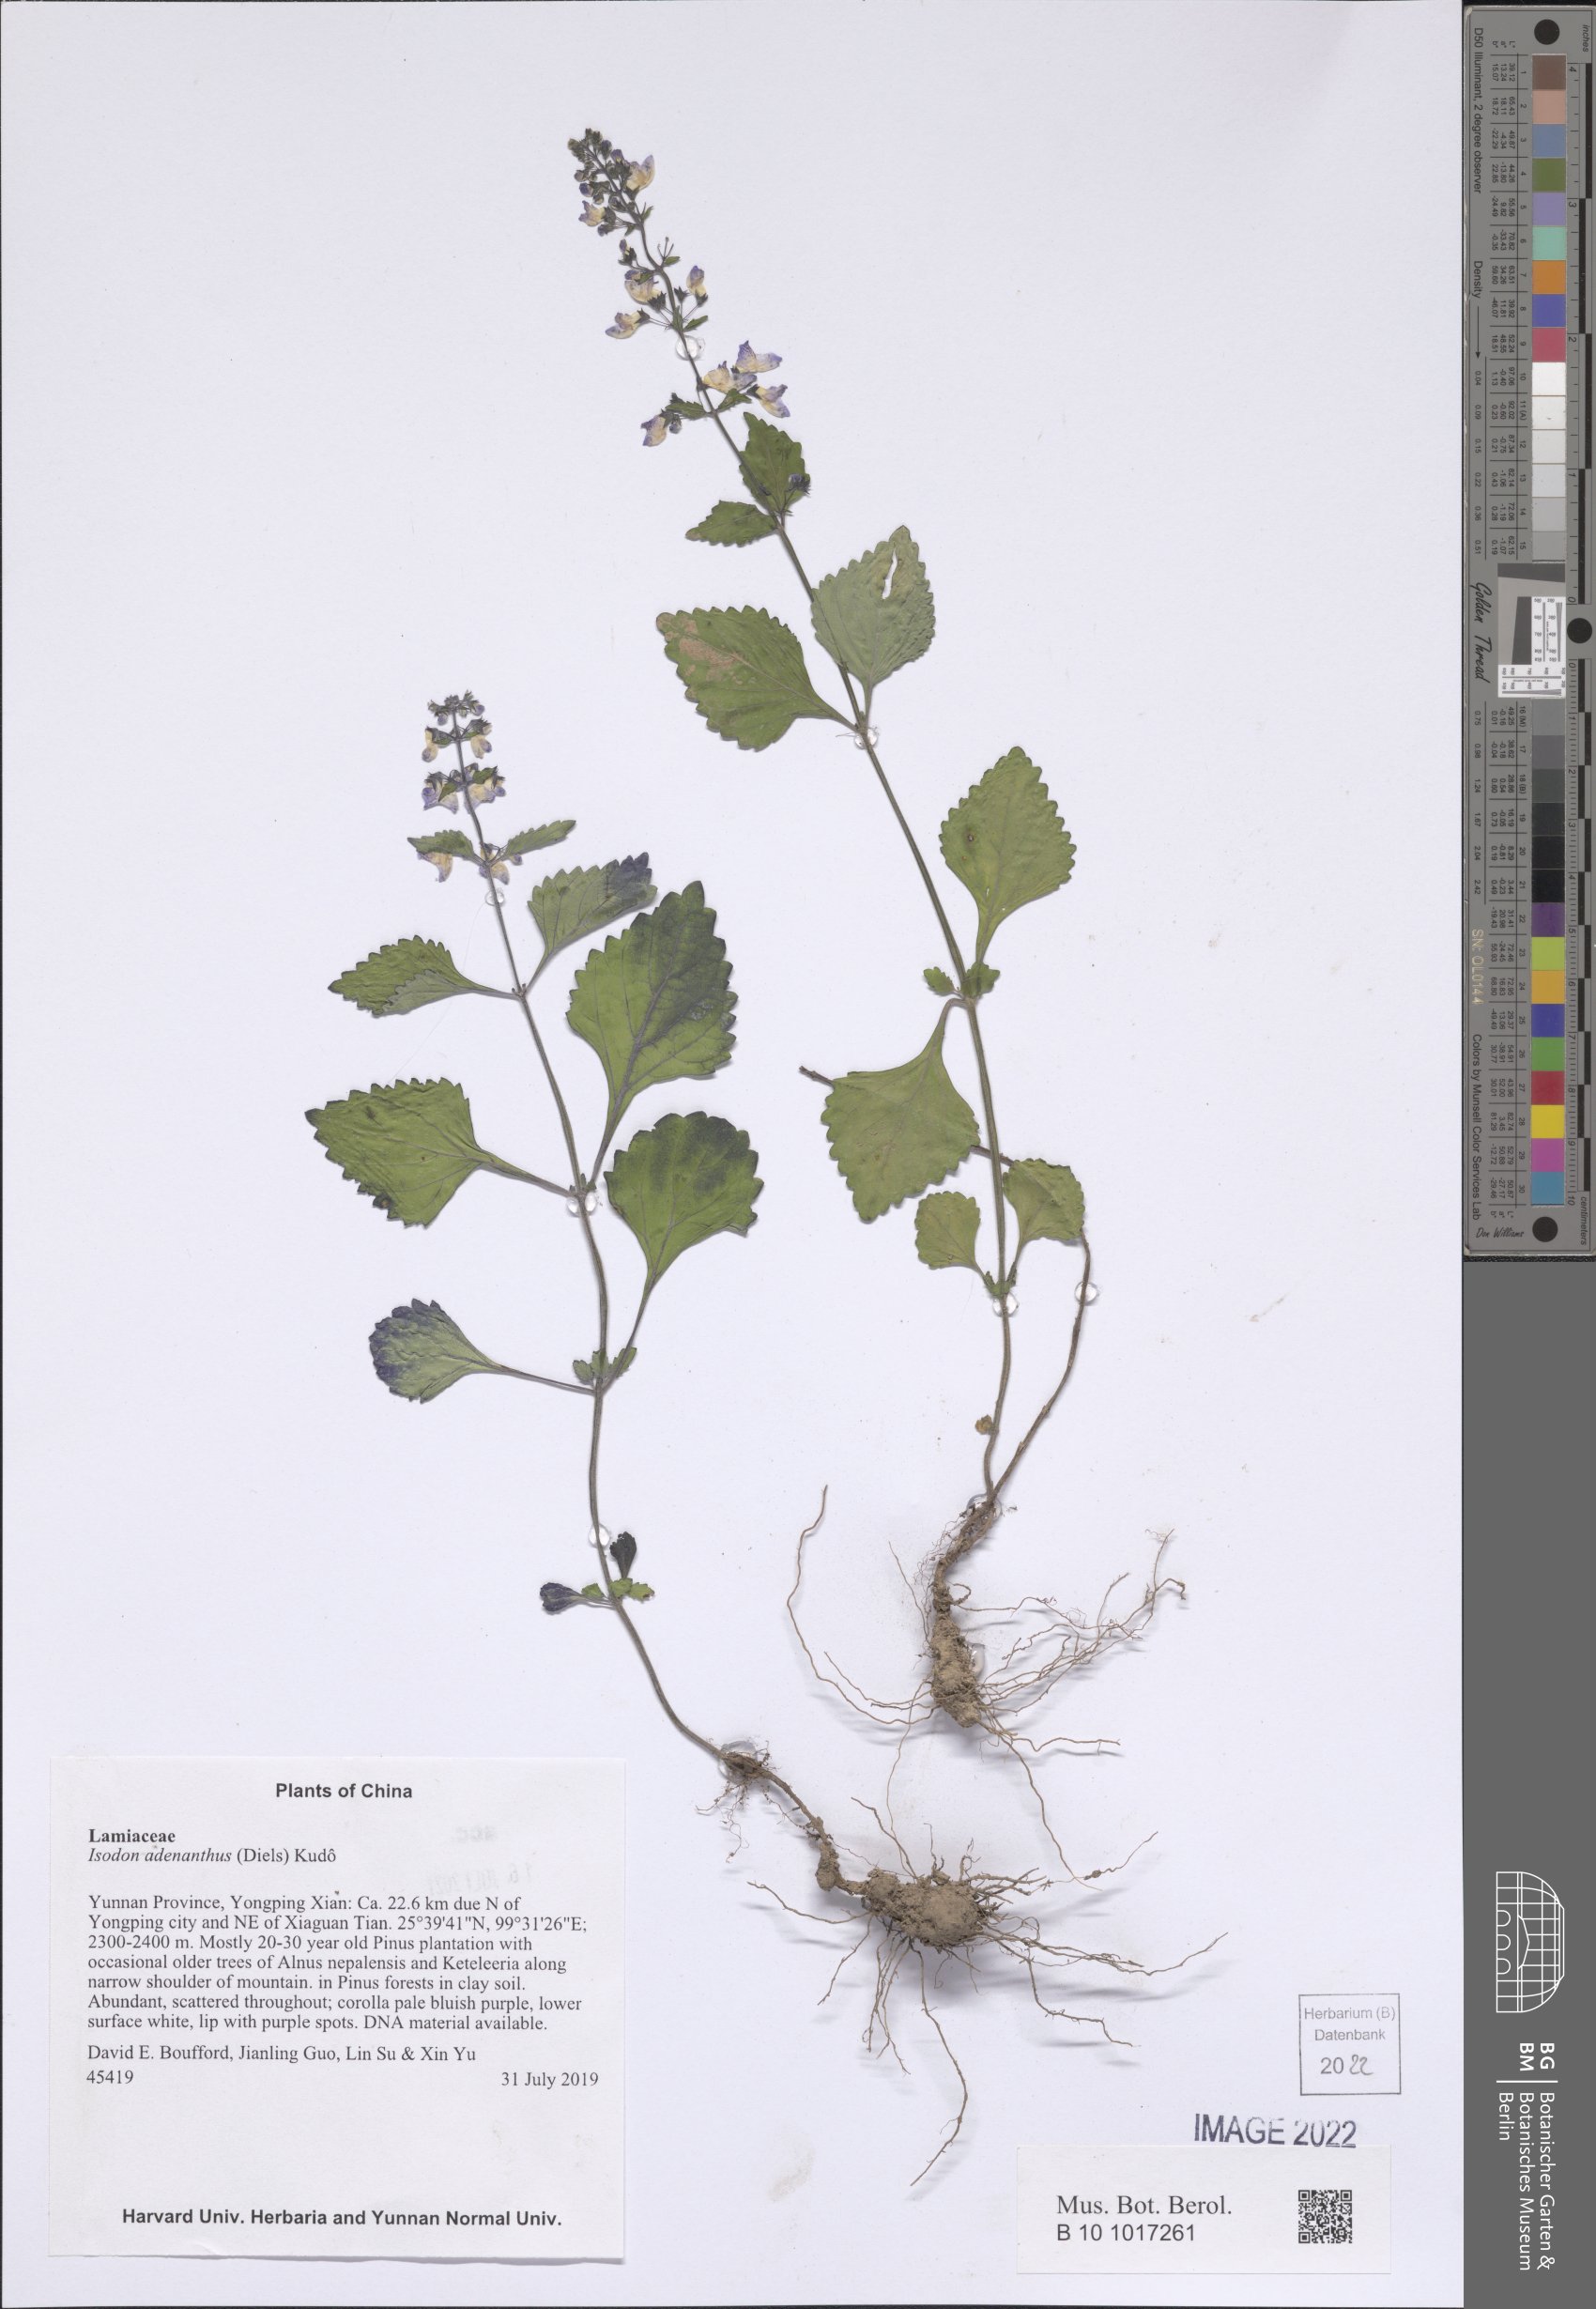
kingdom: Plantae
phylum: Tracheophyta
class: Magnoliopsida
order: Lamiales
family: Lamiaceae
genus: Isodon
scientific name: Isodon adenanthus
